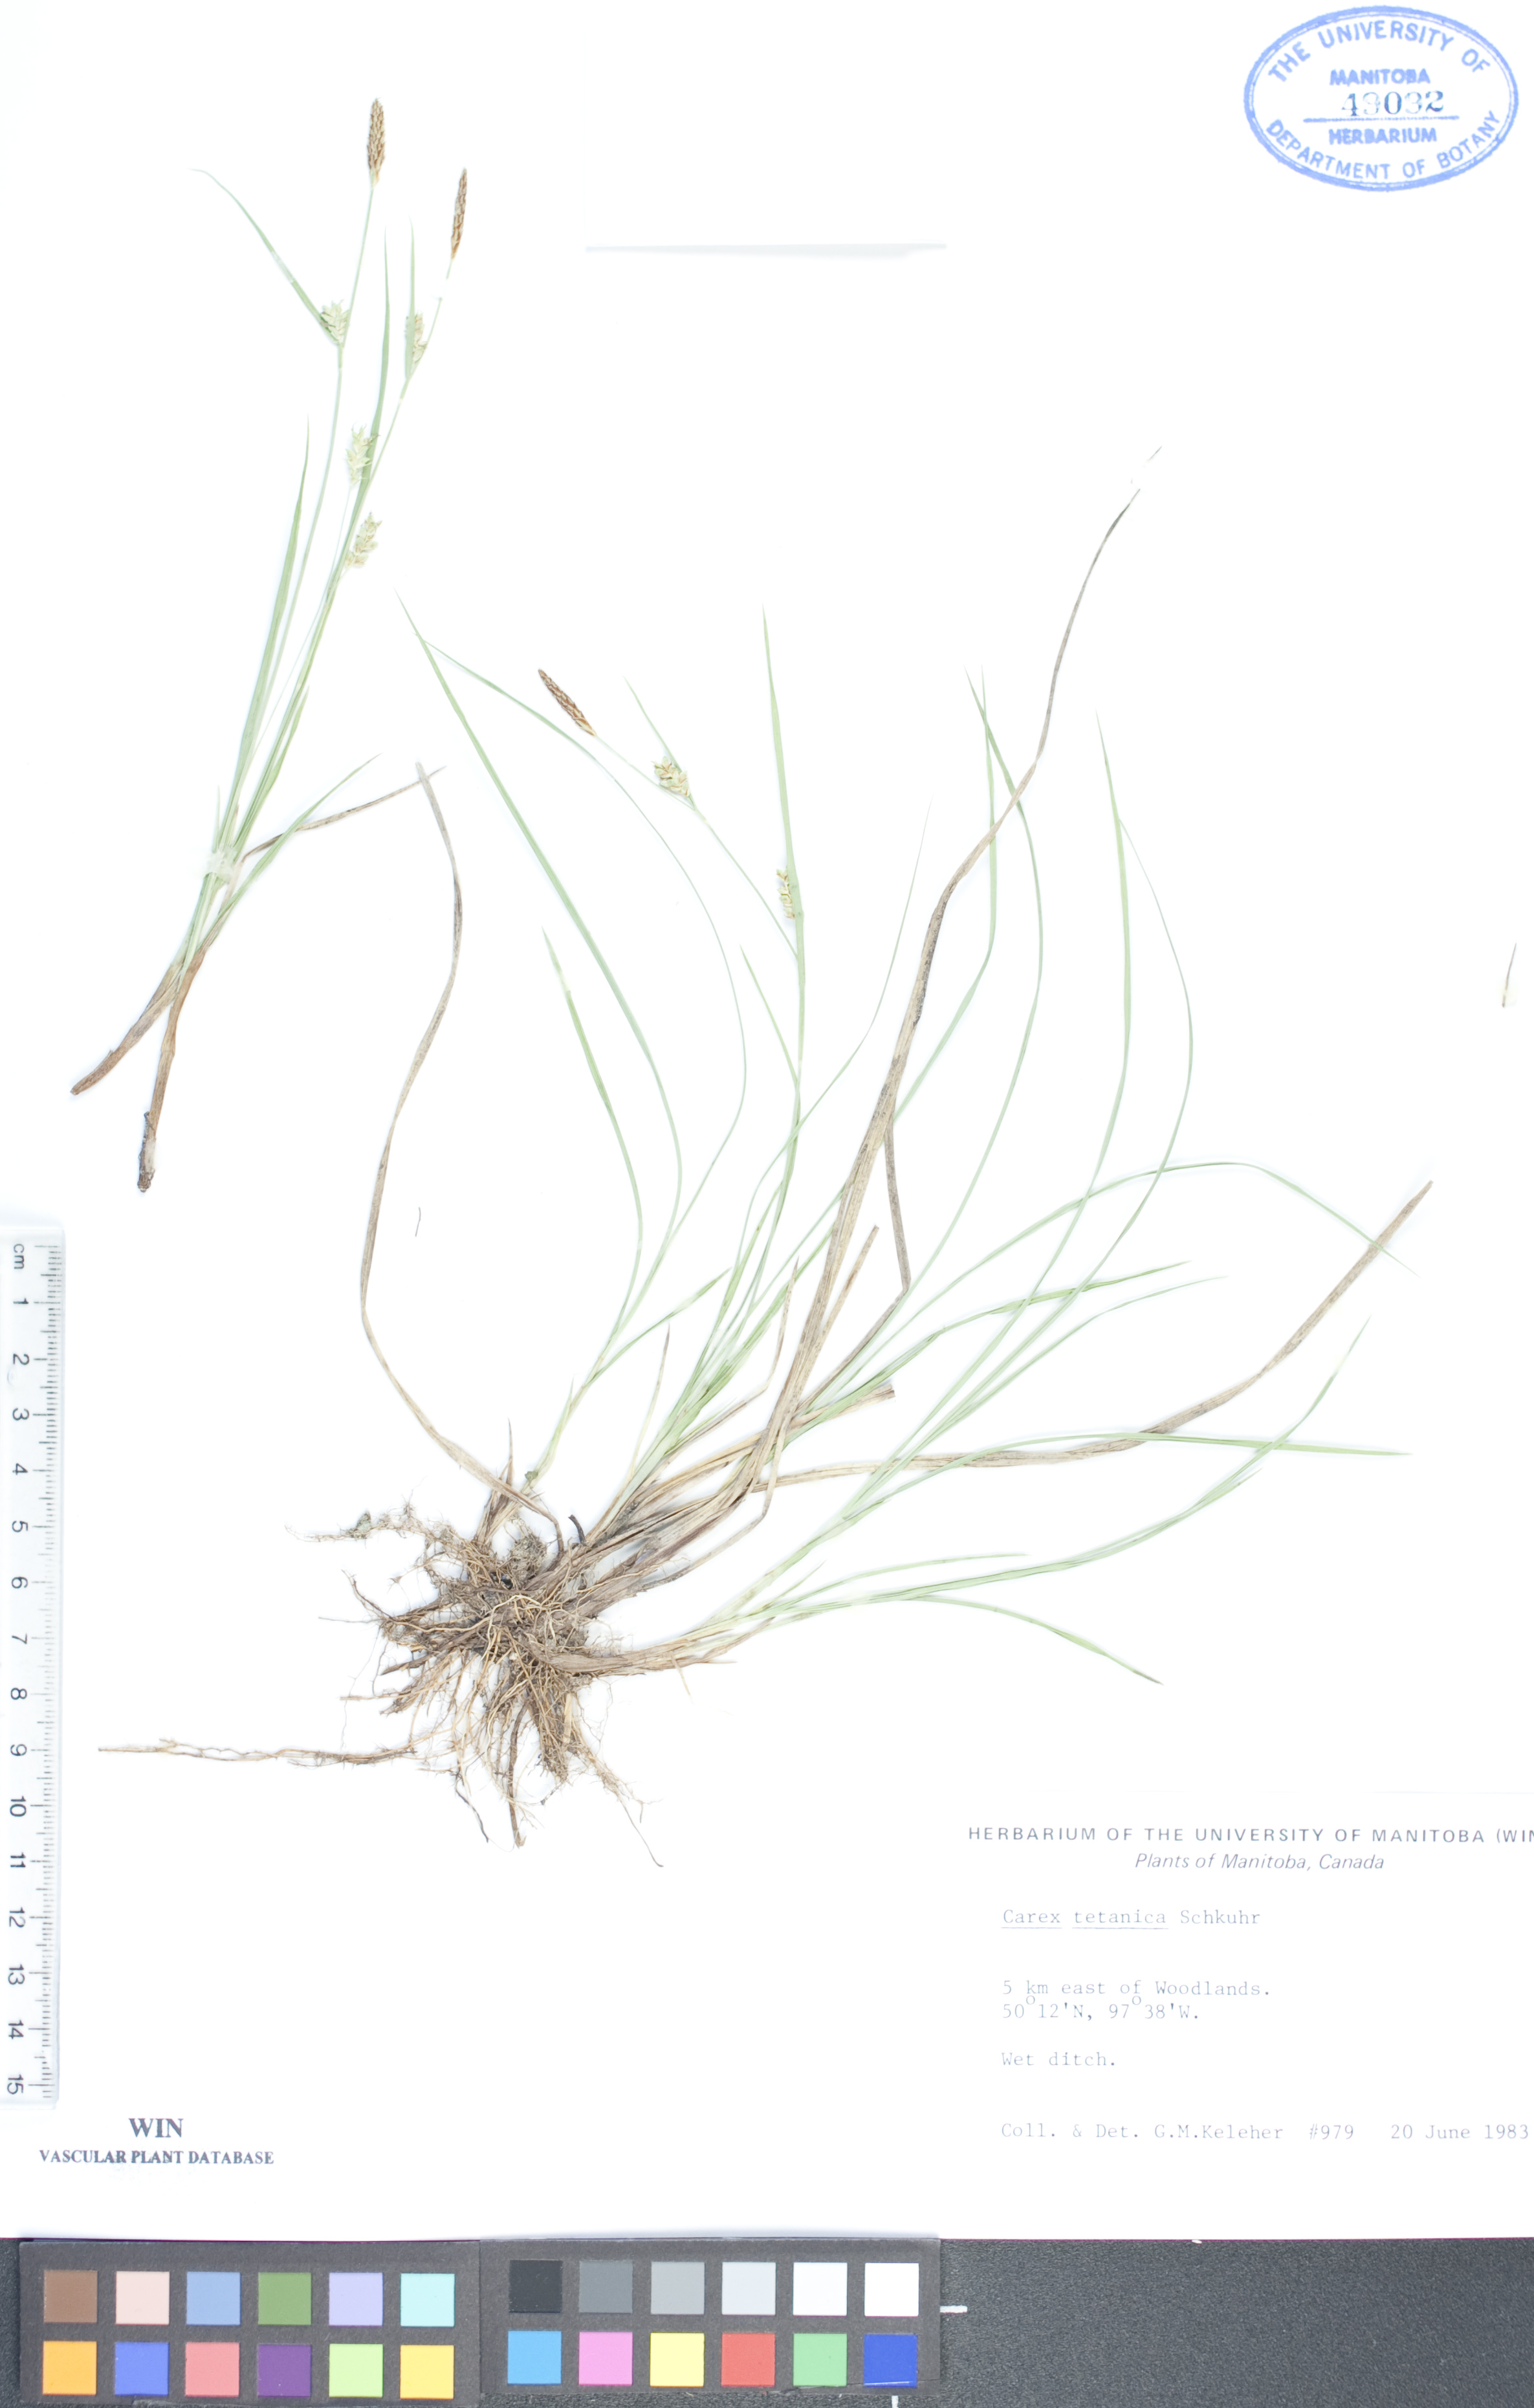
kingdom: Plantae
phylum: Tracheophyta
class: Liliopsida
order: Poales
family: Cyperaceae
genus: Carex
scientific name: Carex tetanica
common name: Rigid sedge
